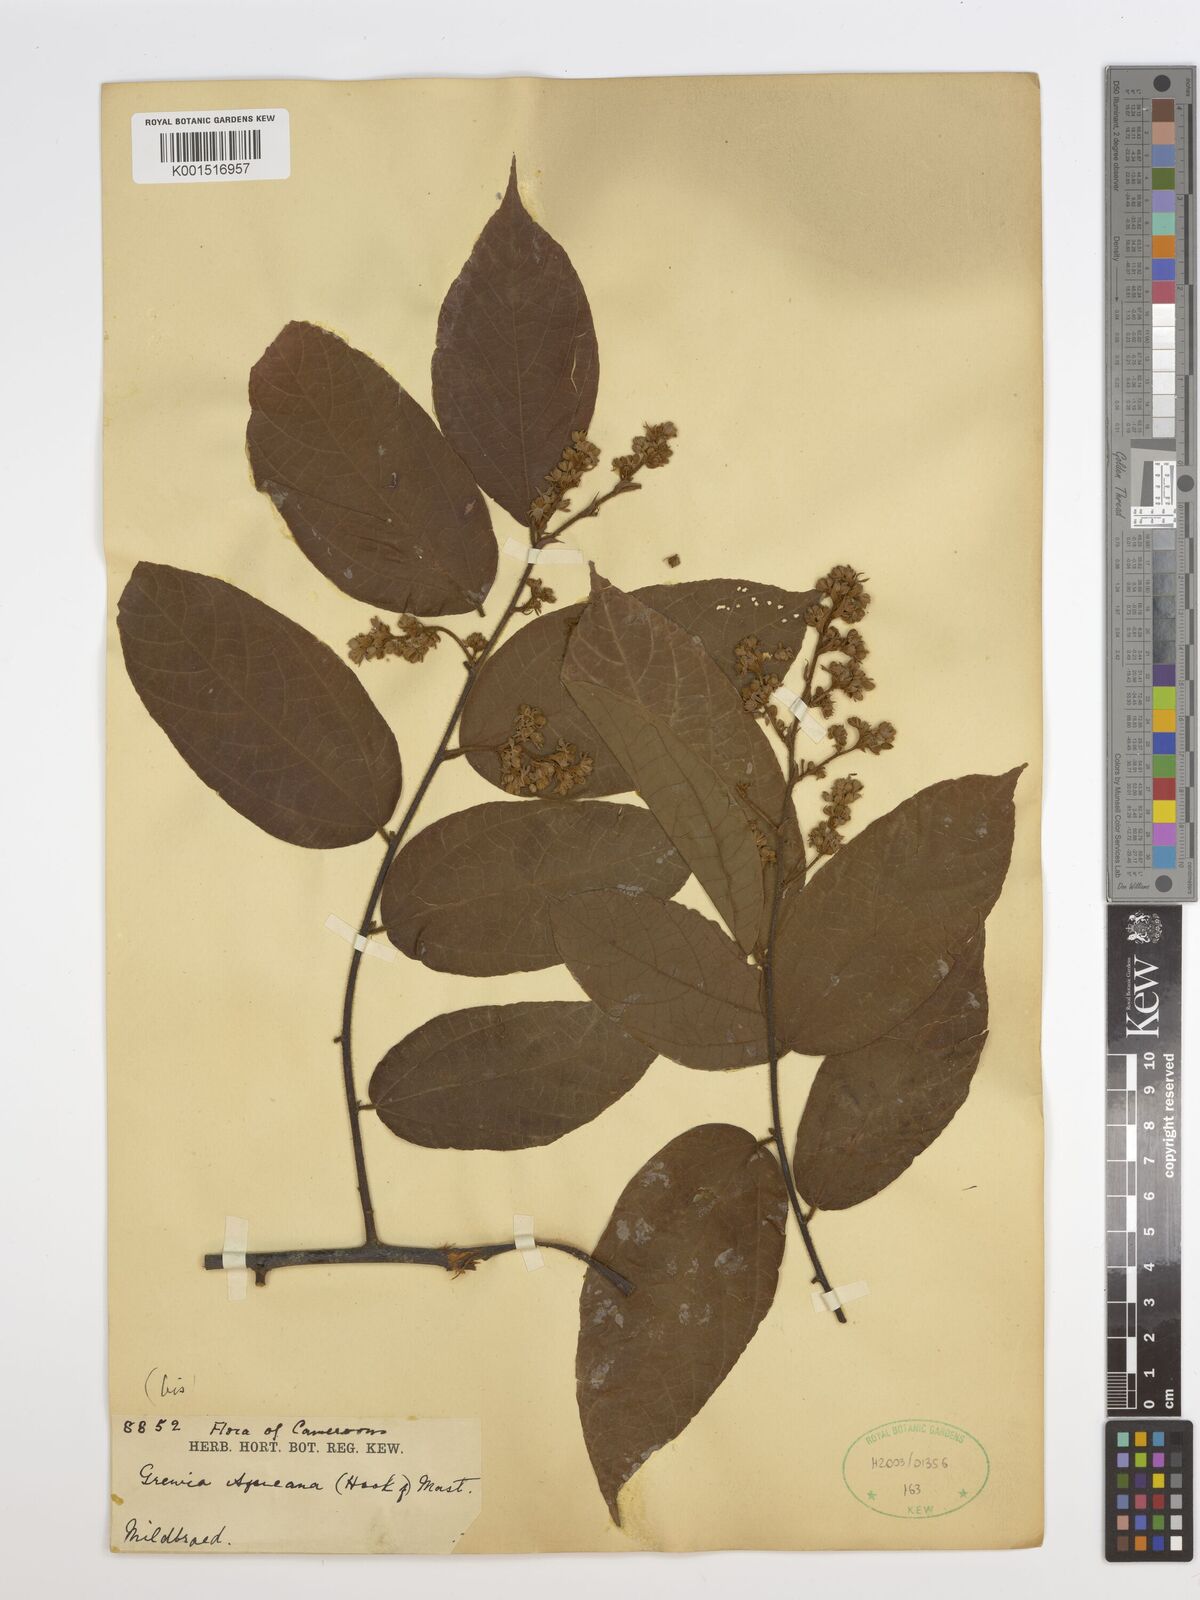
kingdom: Plantae
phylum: Tracheophyta
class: Magnoliopsida
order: Malvales
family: Malvaceae
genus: Grewia
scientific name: Grewia
